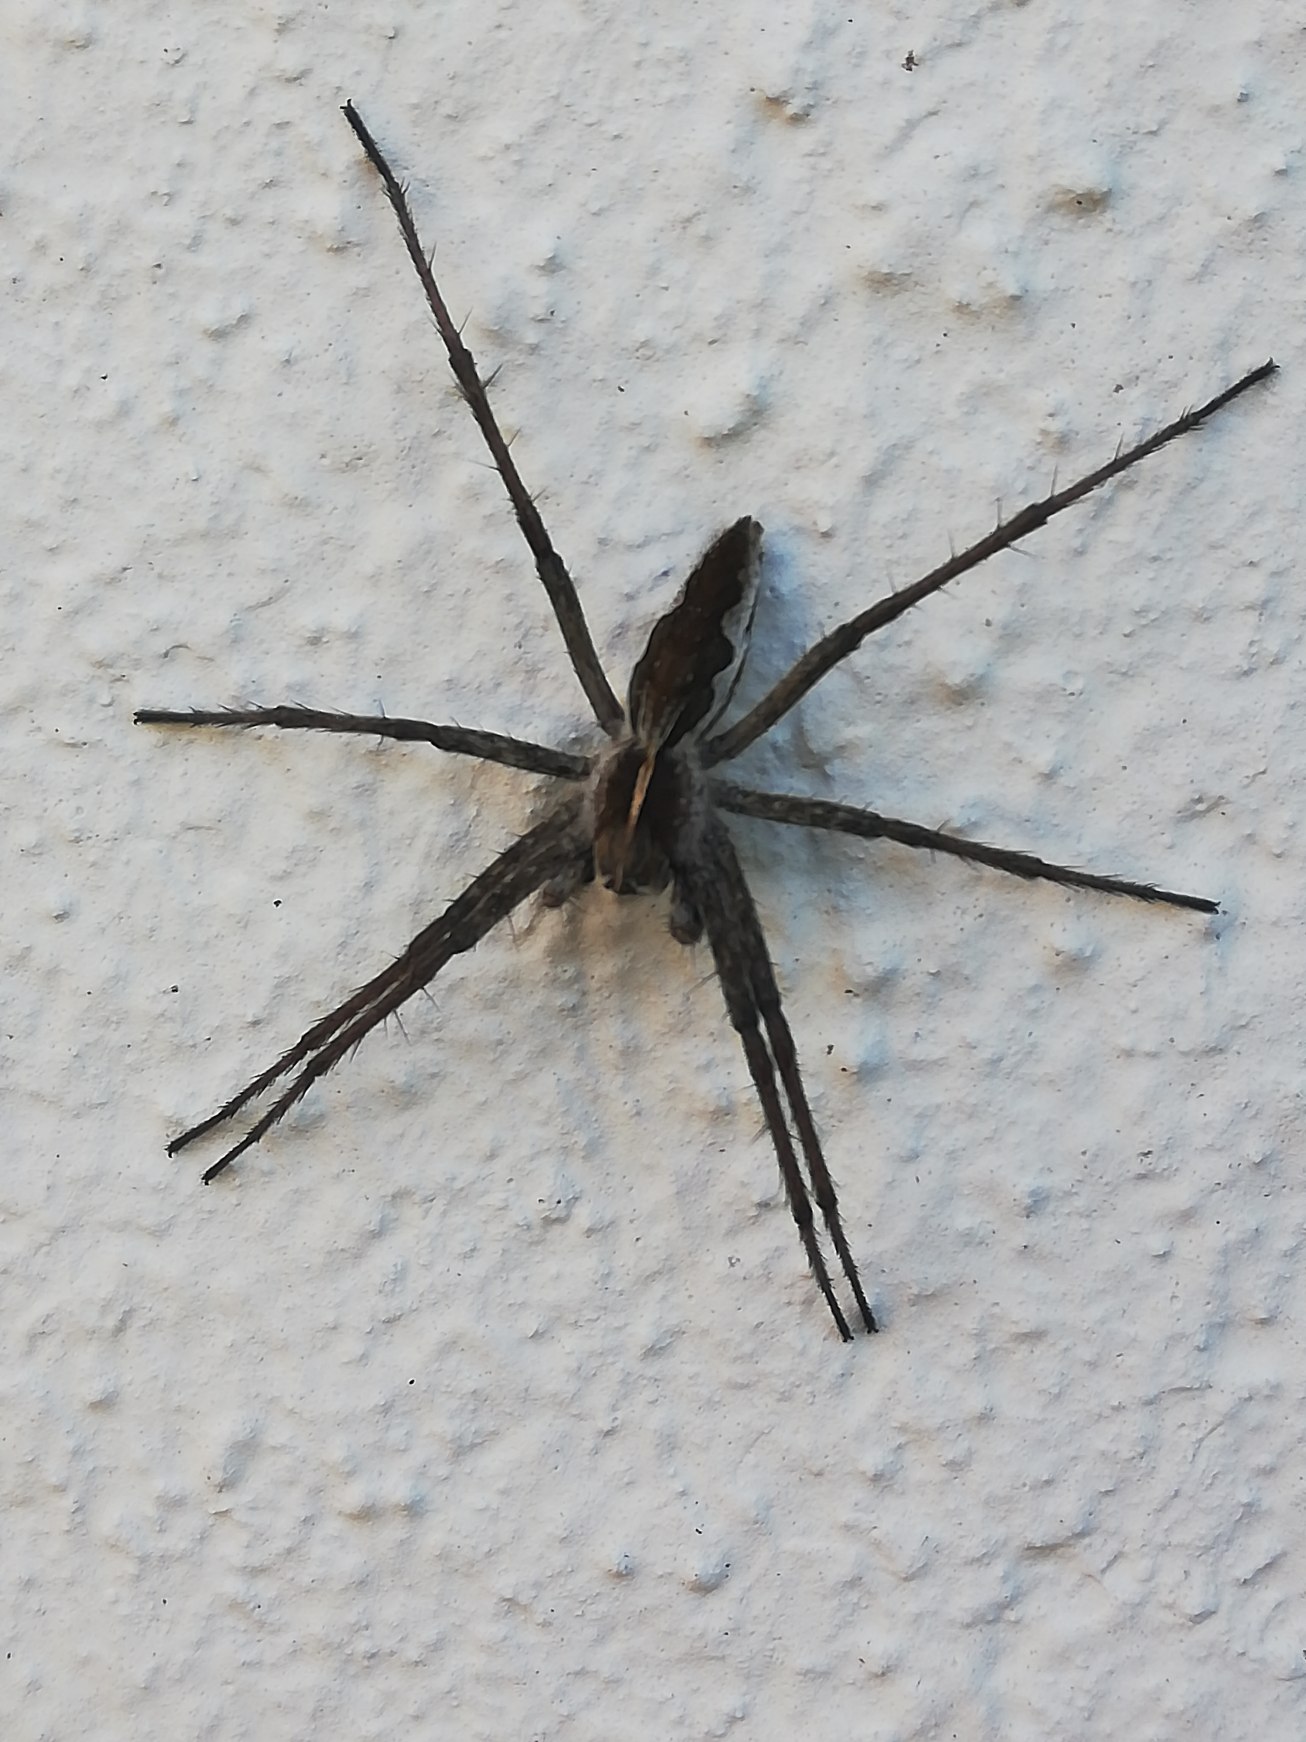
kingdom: Animalia
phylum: Arthropoda
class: Arachnida
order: Araneae
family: Pisauridae
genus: Pisaura
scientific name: Pisaura mirabilis
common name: Almindelig rovedderkop
